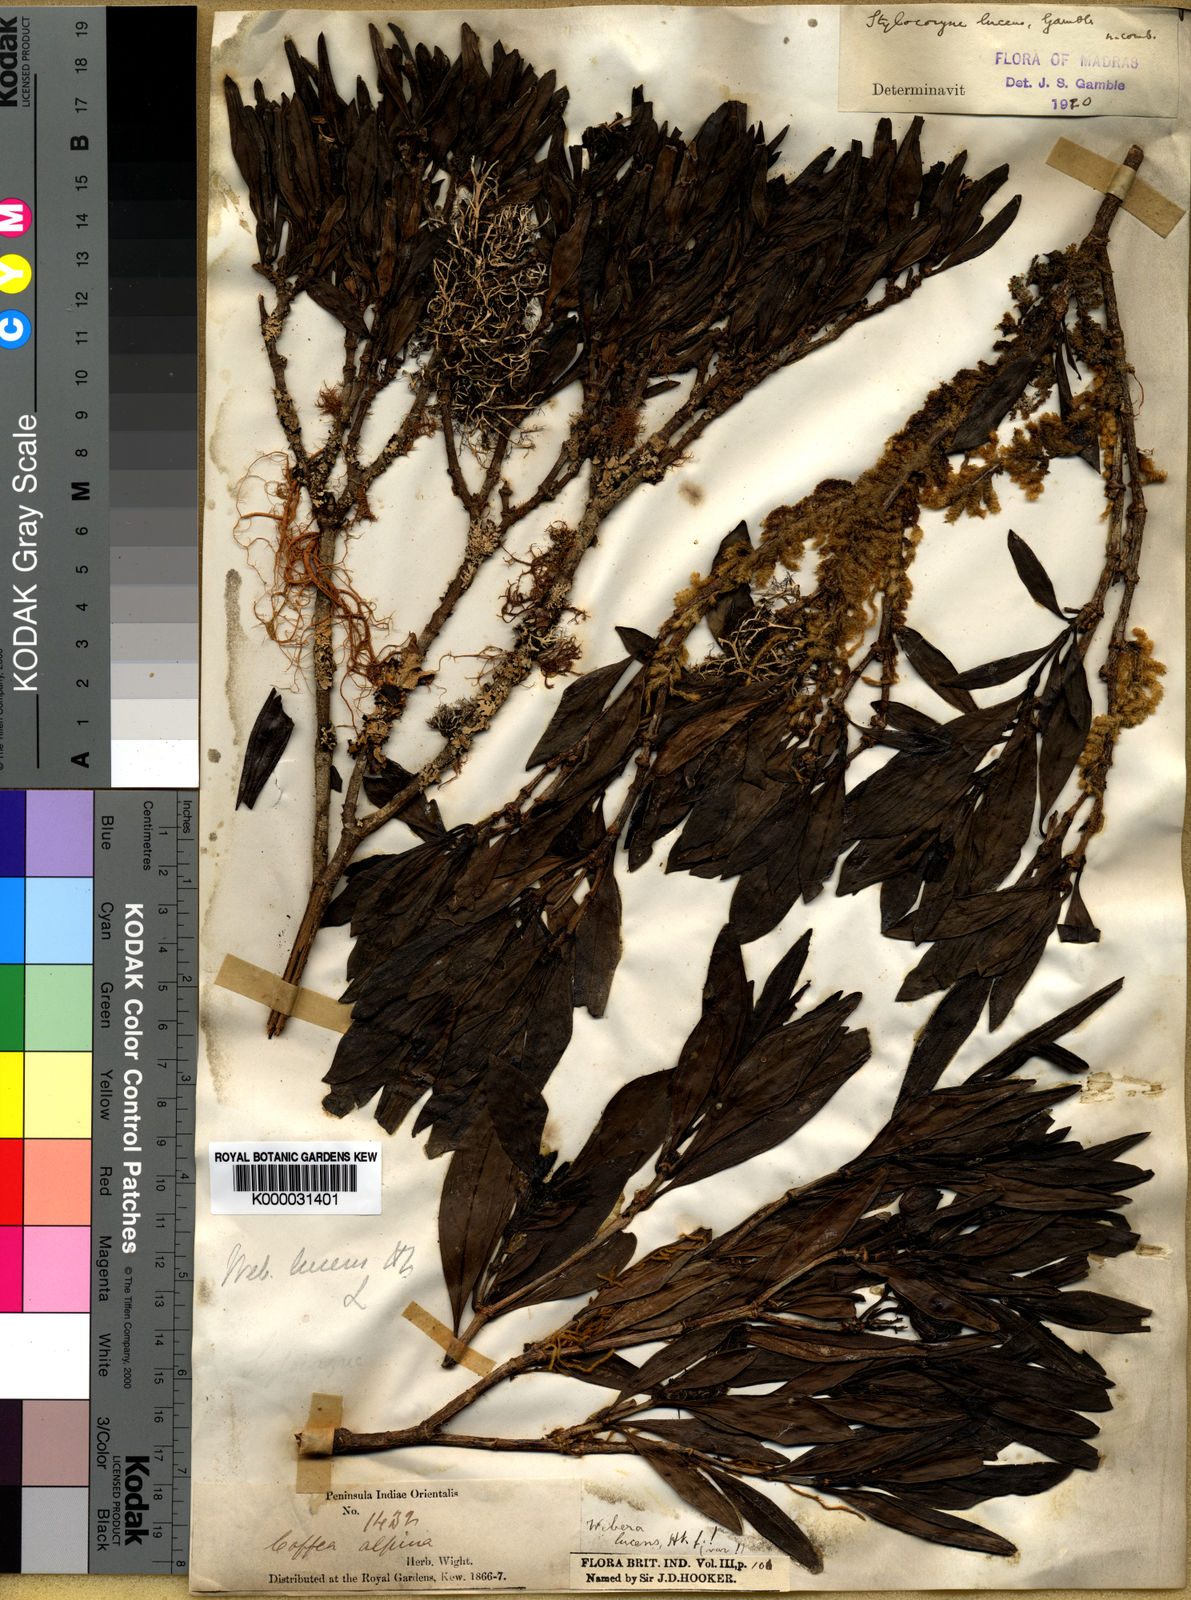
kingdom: Plantae
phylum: Tracheophyta
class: Magnoliopsida
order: Gentianales
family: Rubiaceae
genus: Tarenna
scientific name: Tarenna alpestris
